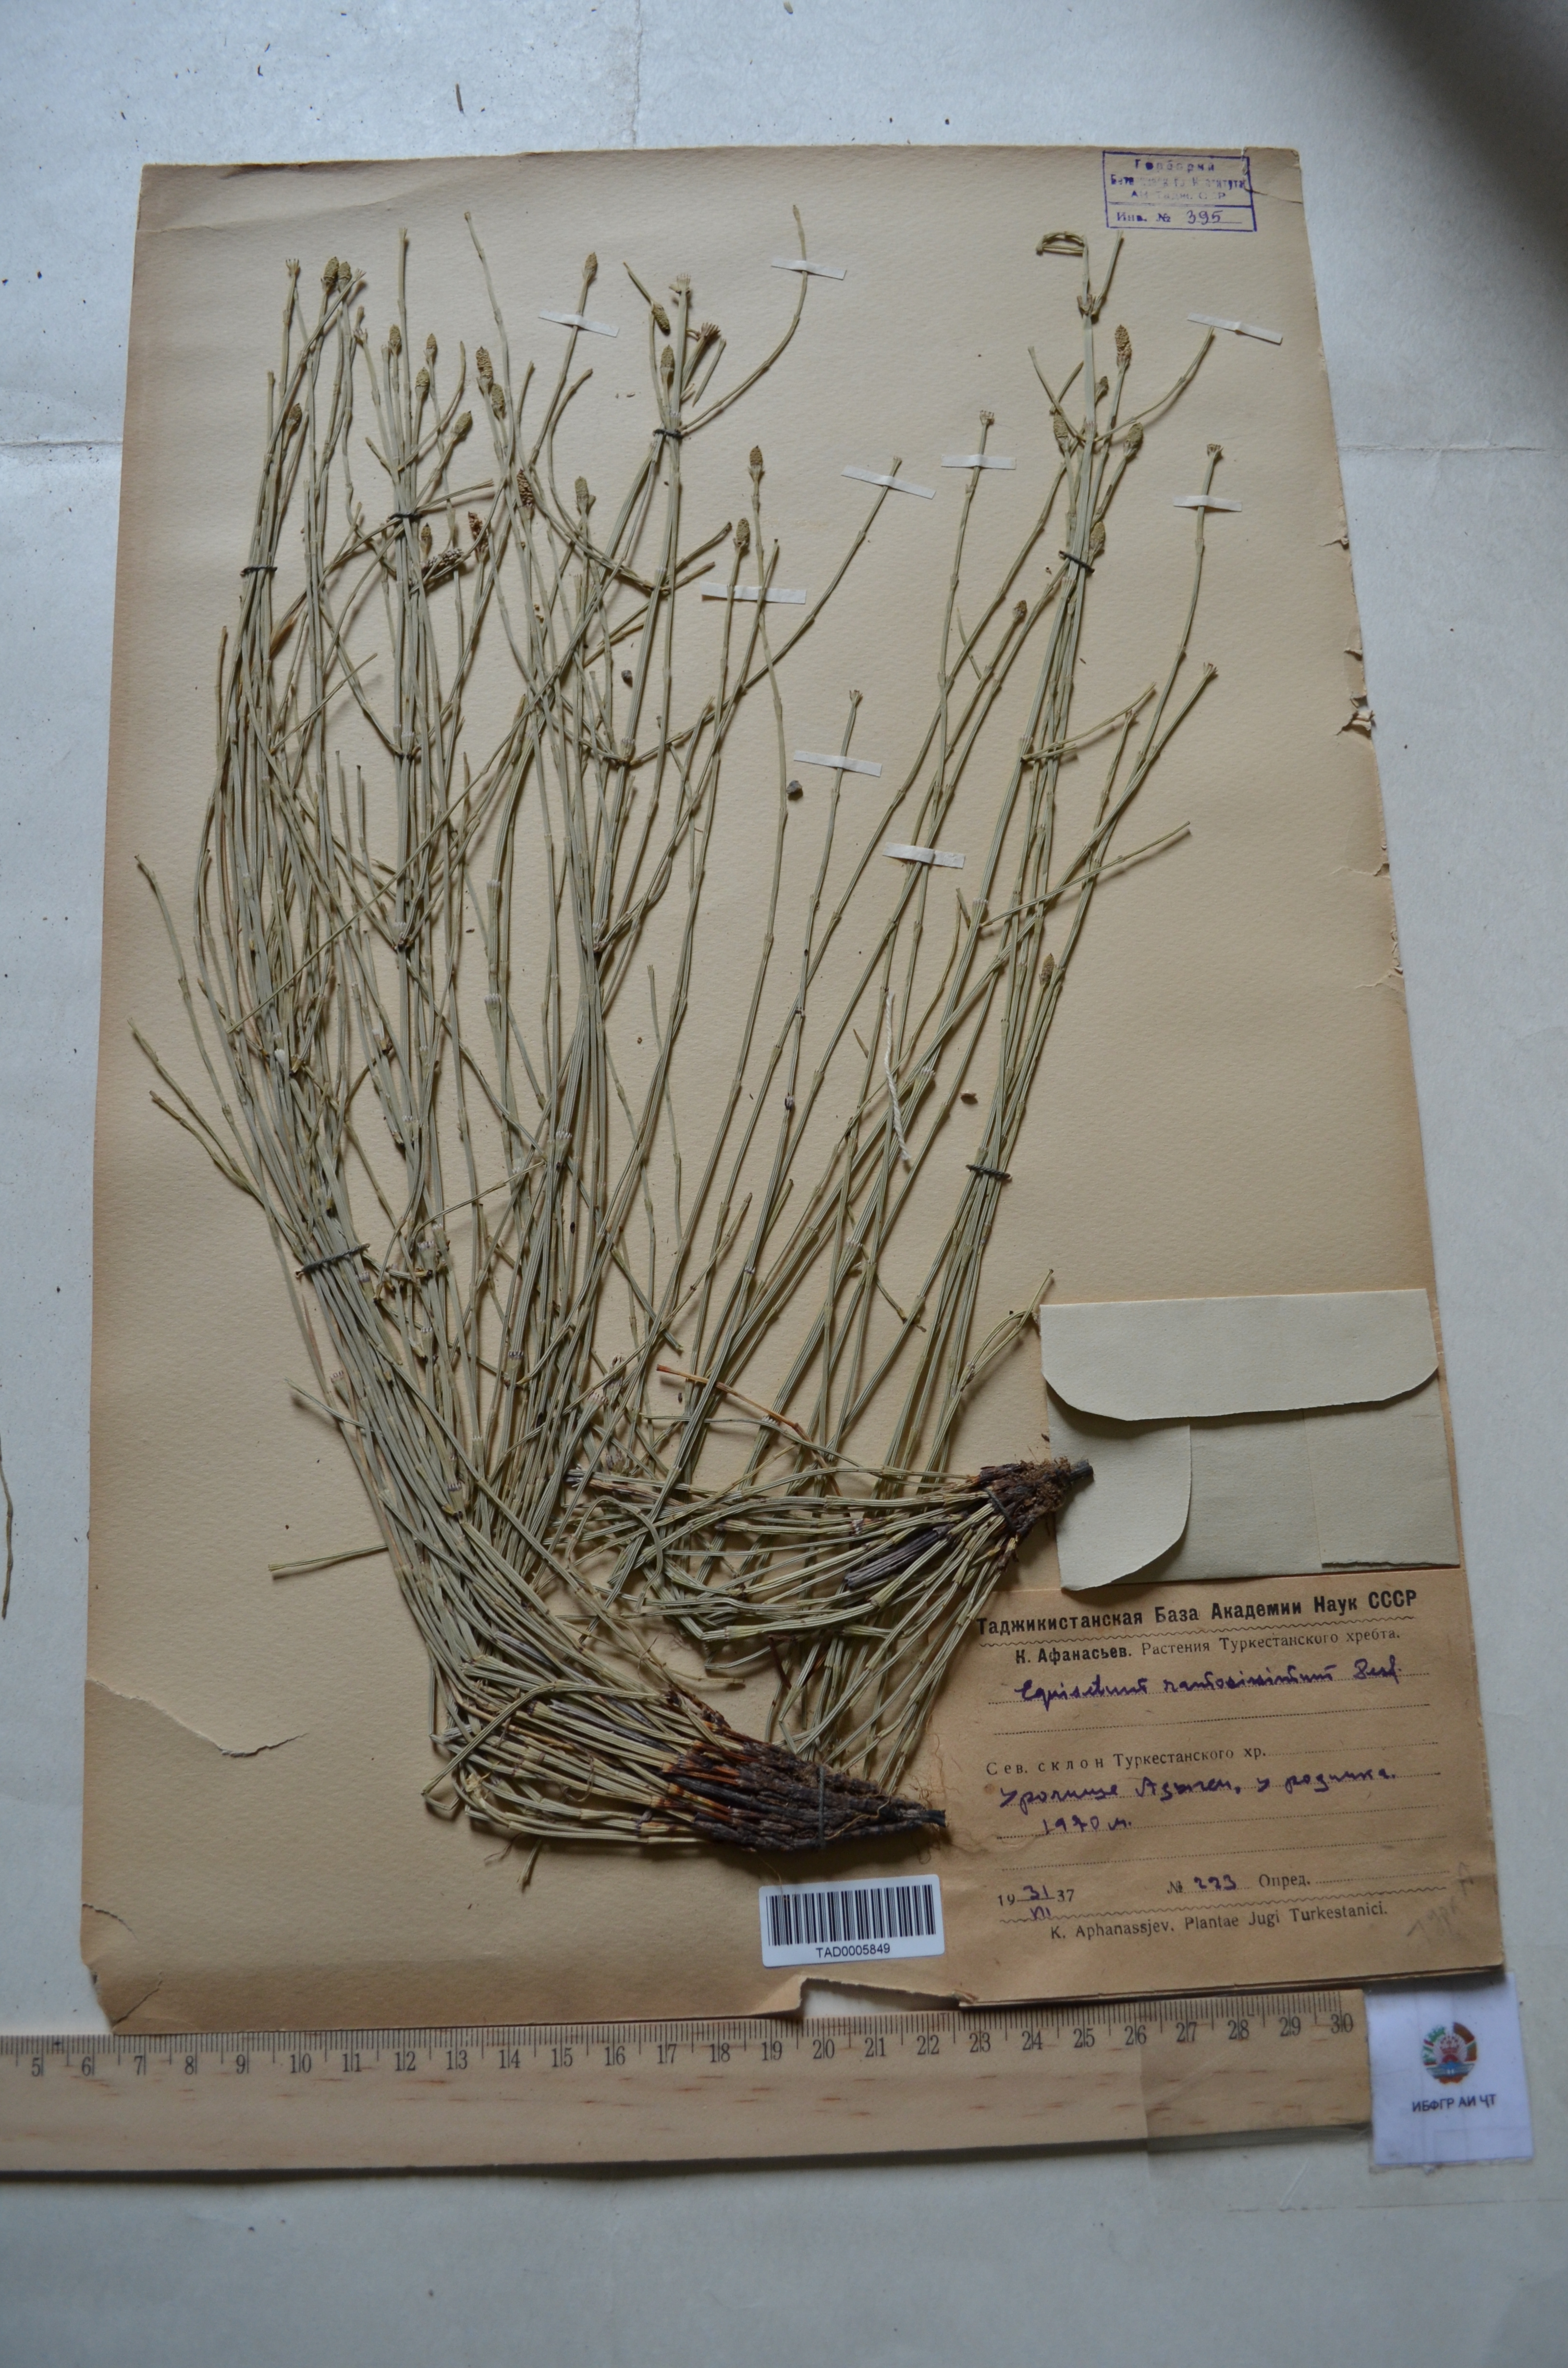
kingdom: Plantae
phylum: Tracheophyta
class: Polypodiopsida
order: Equisetales
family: Equisetaceae
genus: Equisetum
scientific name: Equisetum ramosissimum
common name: Branched horsetail
